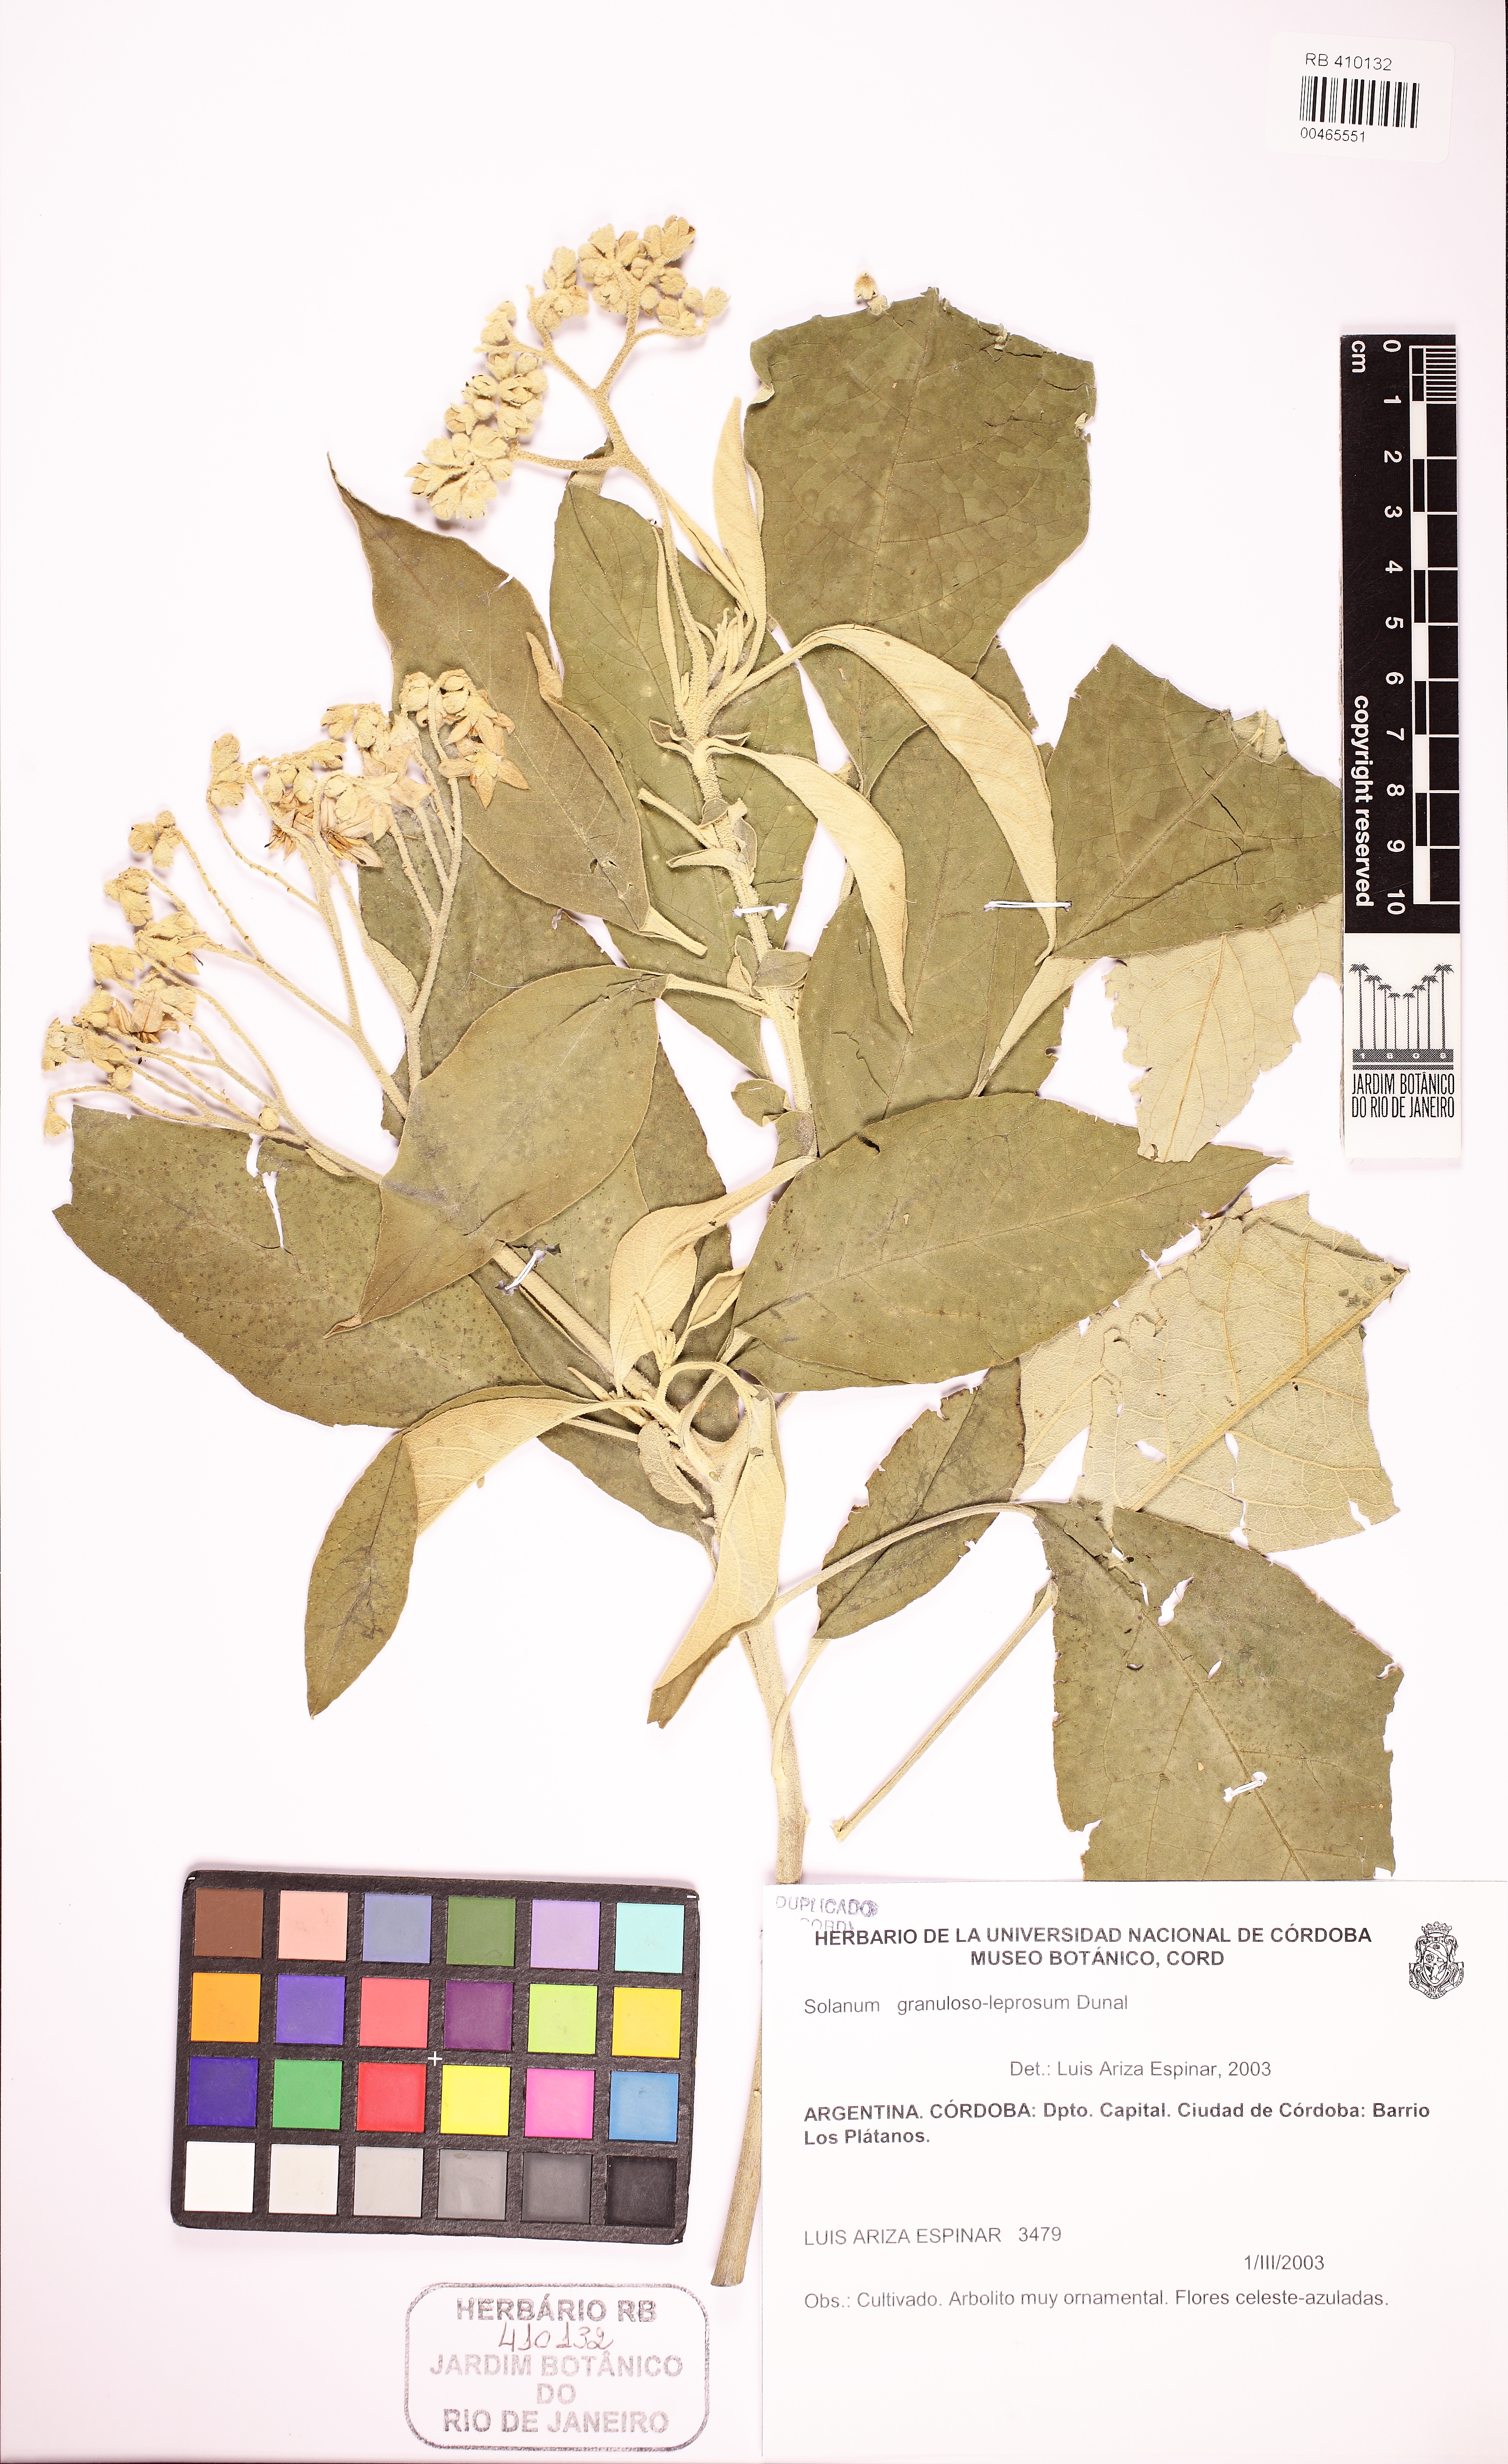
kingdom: Plantae
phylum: Tracheophyta
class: Magnoliopsida
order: Solanales
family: Solanaceae
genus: Solanum
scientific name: Solanum granulosoleprosum
